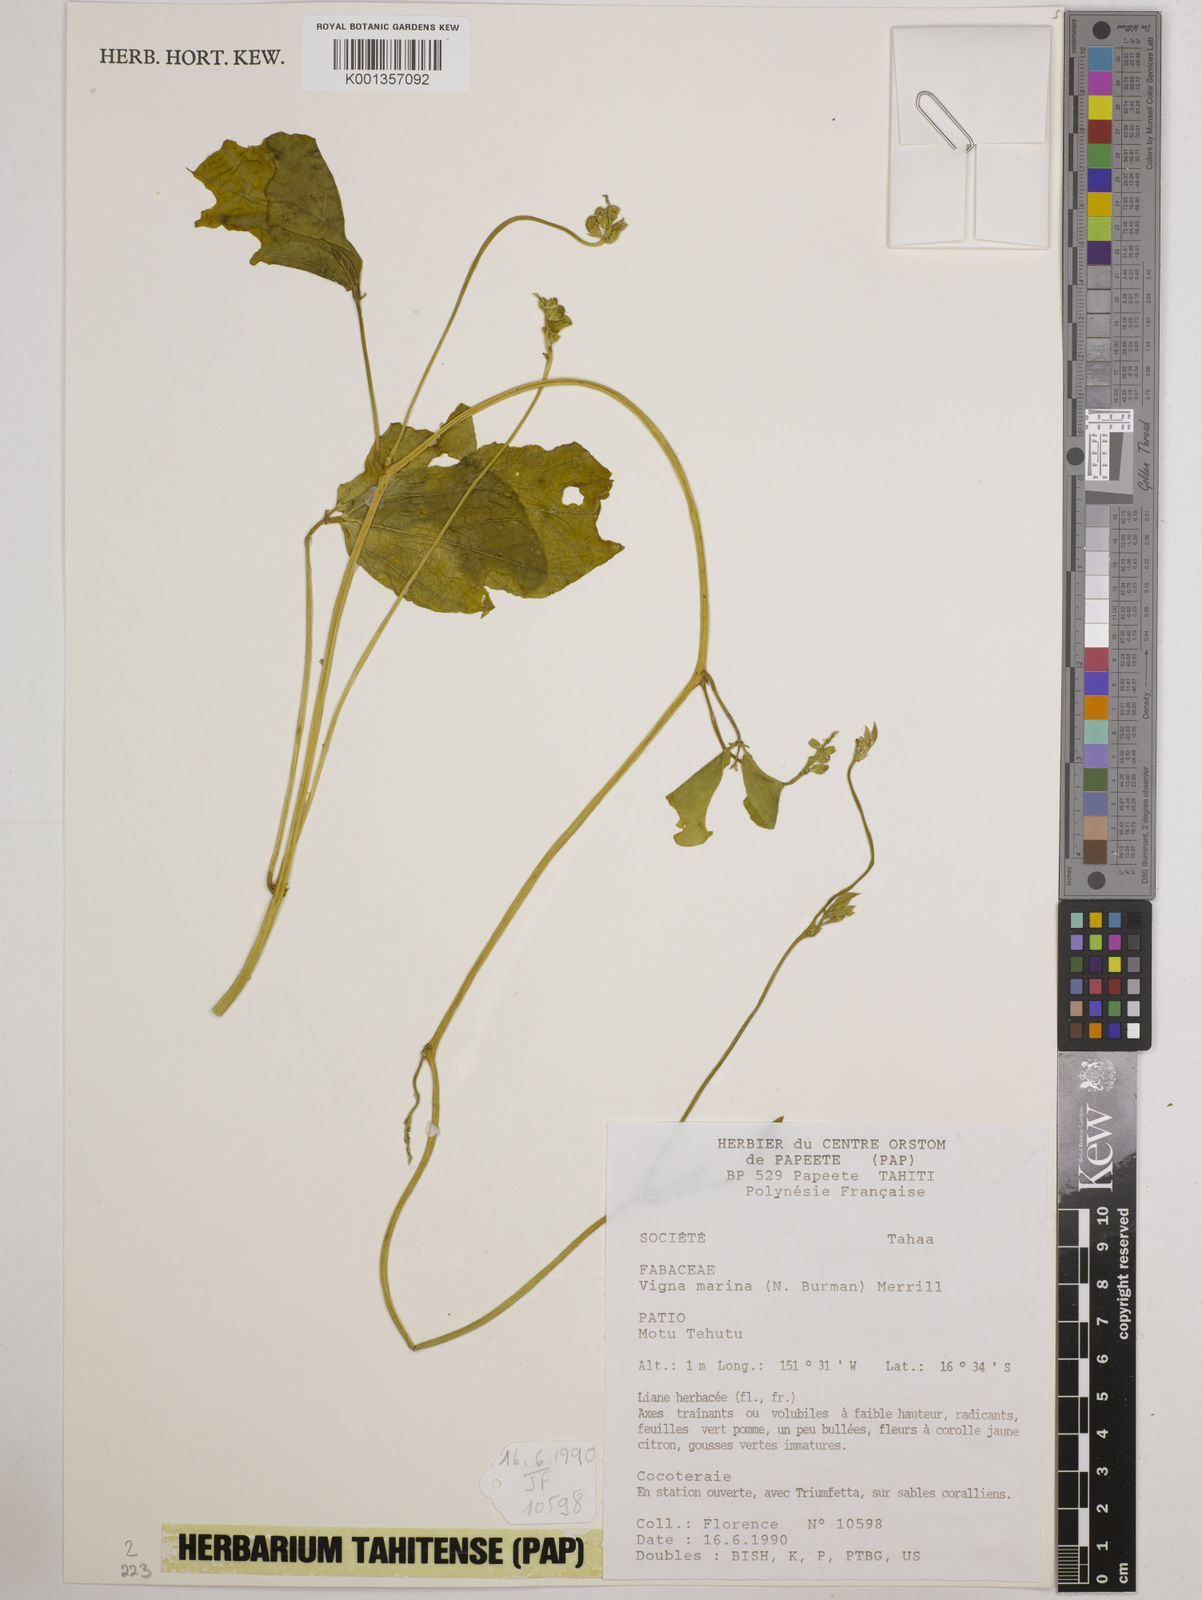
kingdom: Plantae
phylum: Tracheophyta
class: Magnoliopsida
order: Fabales
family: Fabaceae
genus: Vigna
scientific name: Vigna marina
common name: Dune-bean
